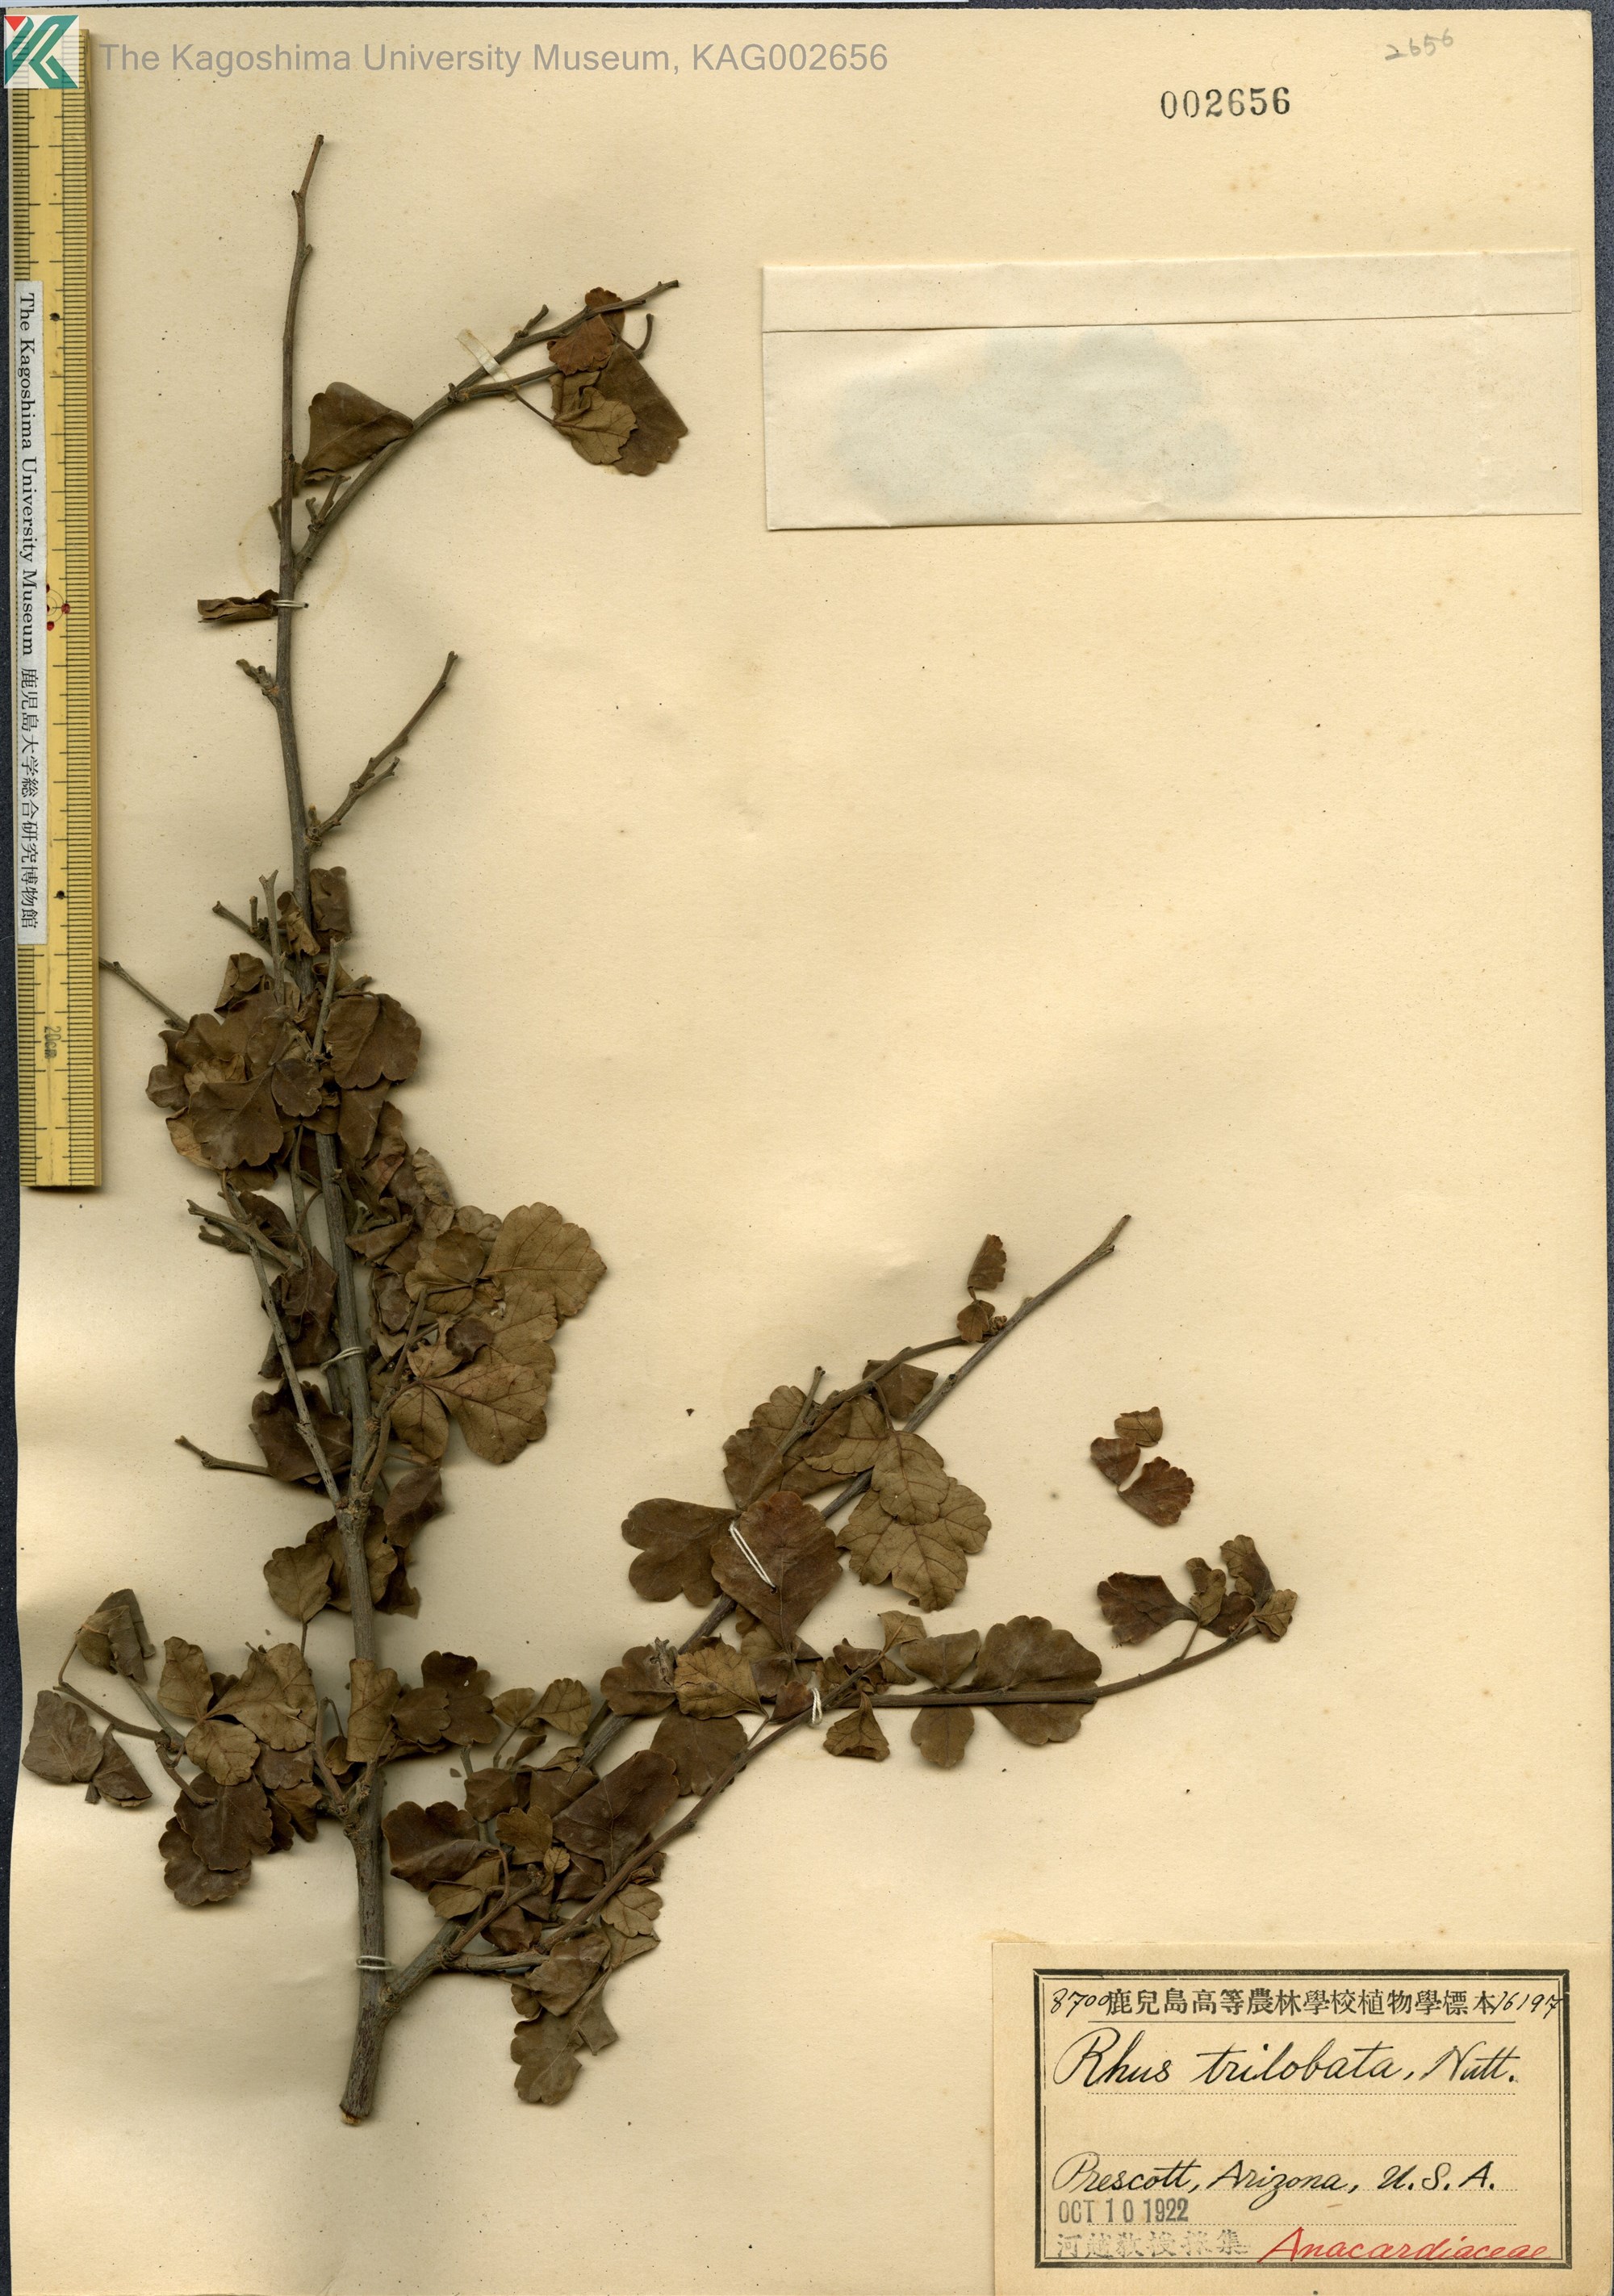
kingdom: Plantae
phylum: Tracheophyta
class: Magnoliopsida
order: Sapindales
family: Anacardiaceae
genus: Rhus
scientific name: Rhus trilobata
